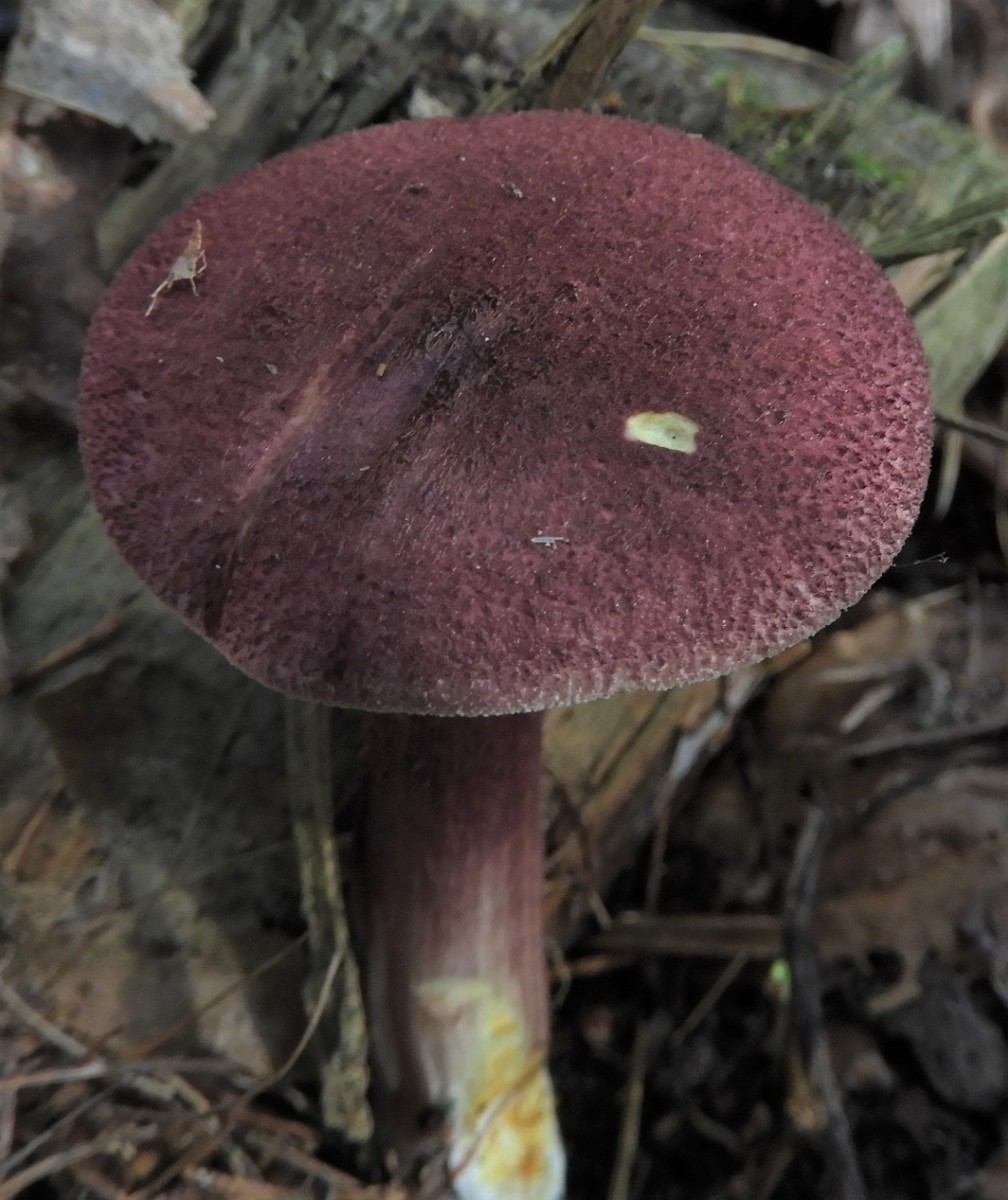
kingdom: Fungi
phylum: Basidiomycota
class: Agaricomycetes
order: Agaricales
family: Tricholomataceae
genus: Tricholomopsis
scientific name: Tricholomopsis rutilans
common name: purpur-væbnerhat
